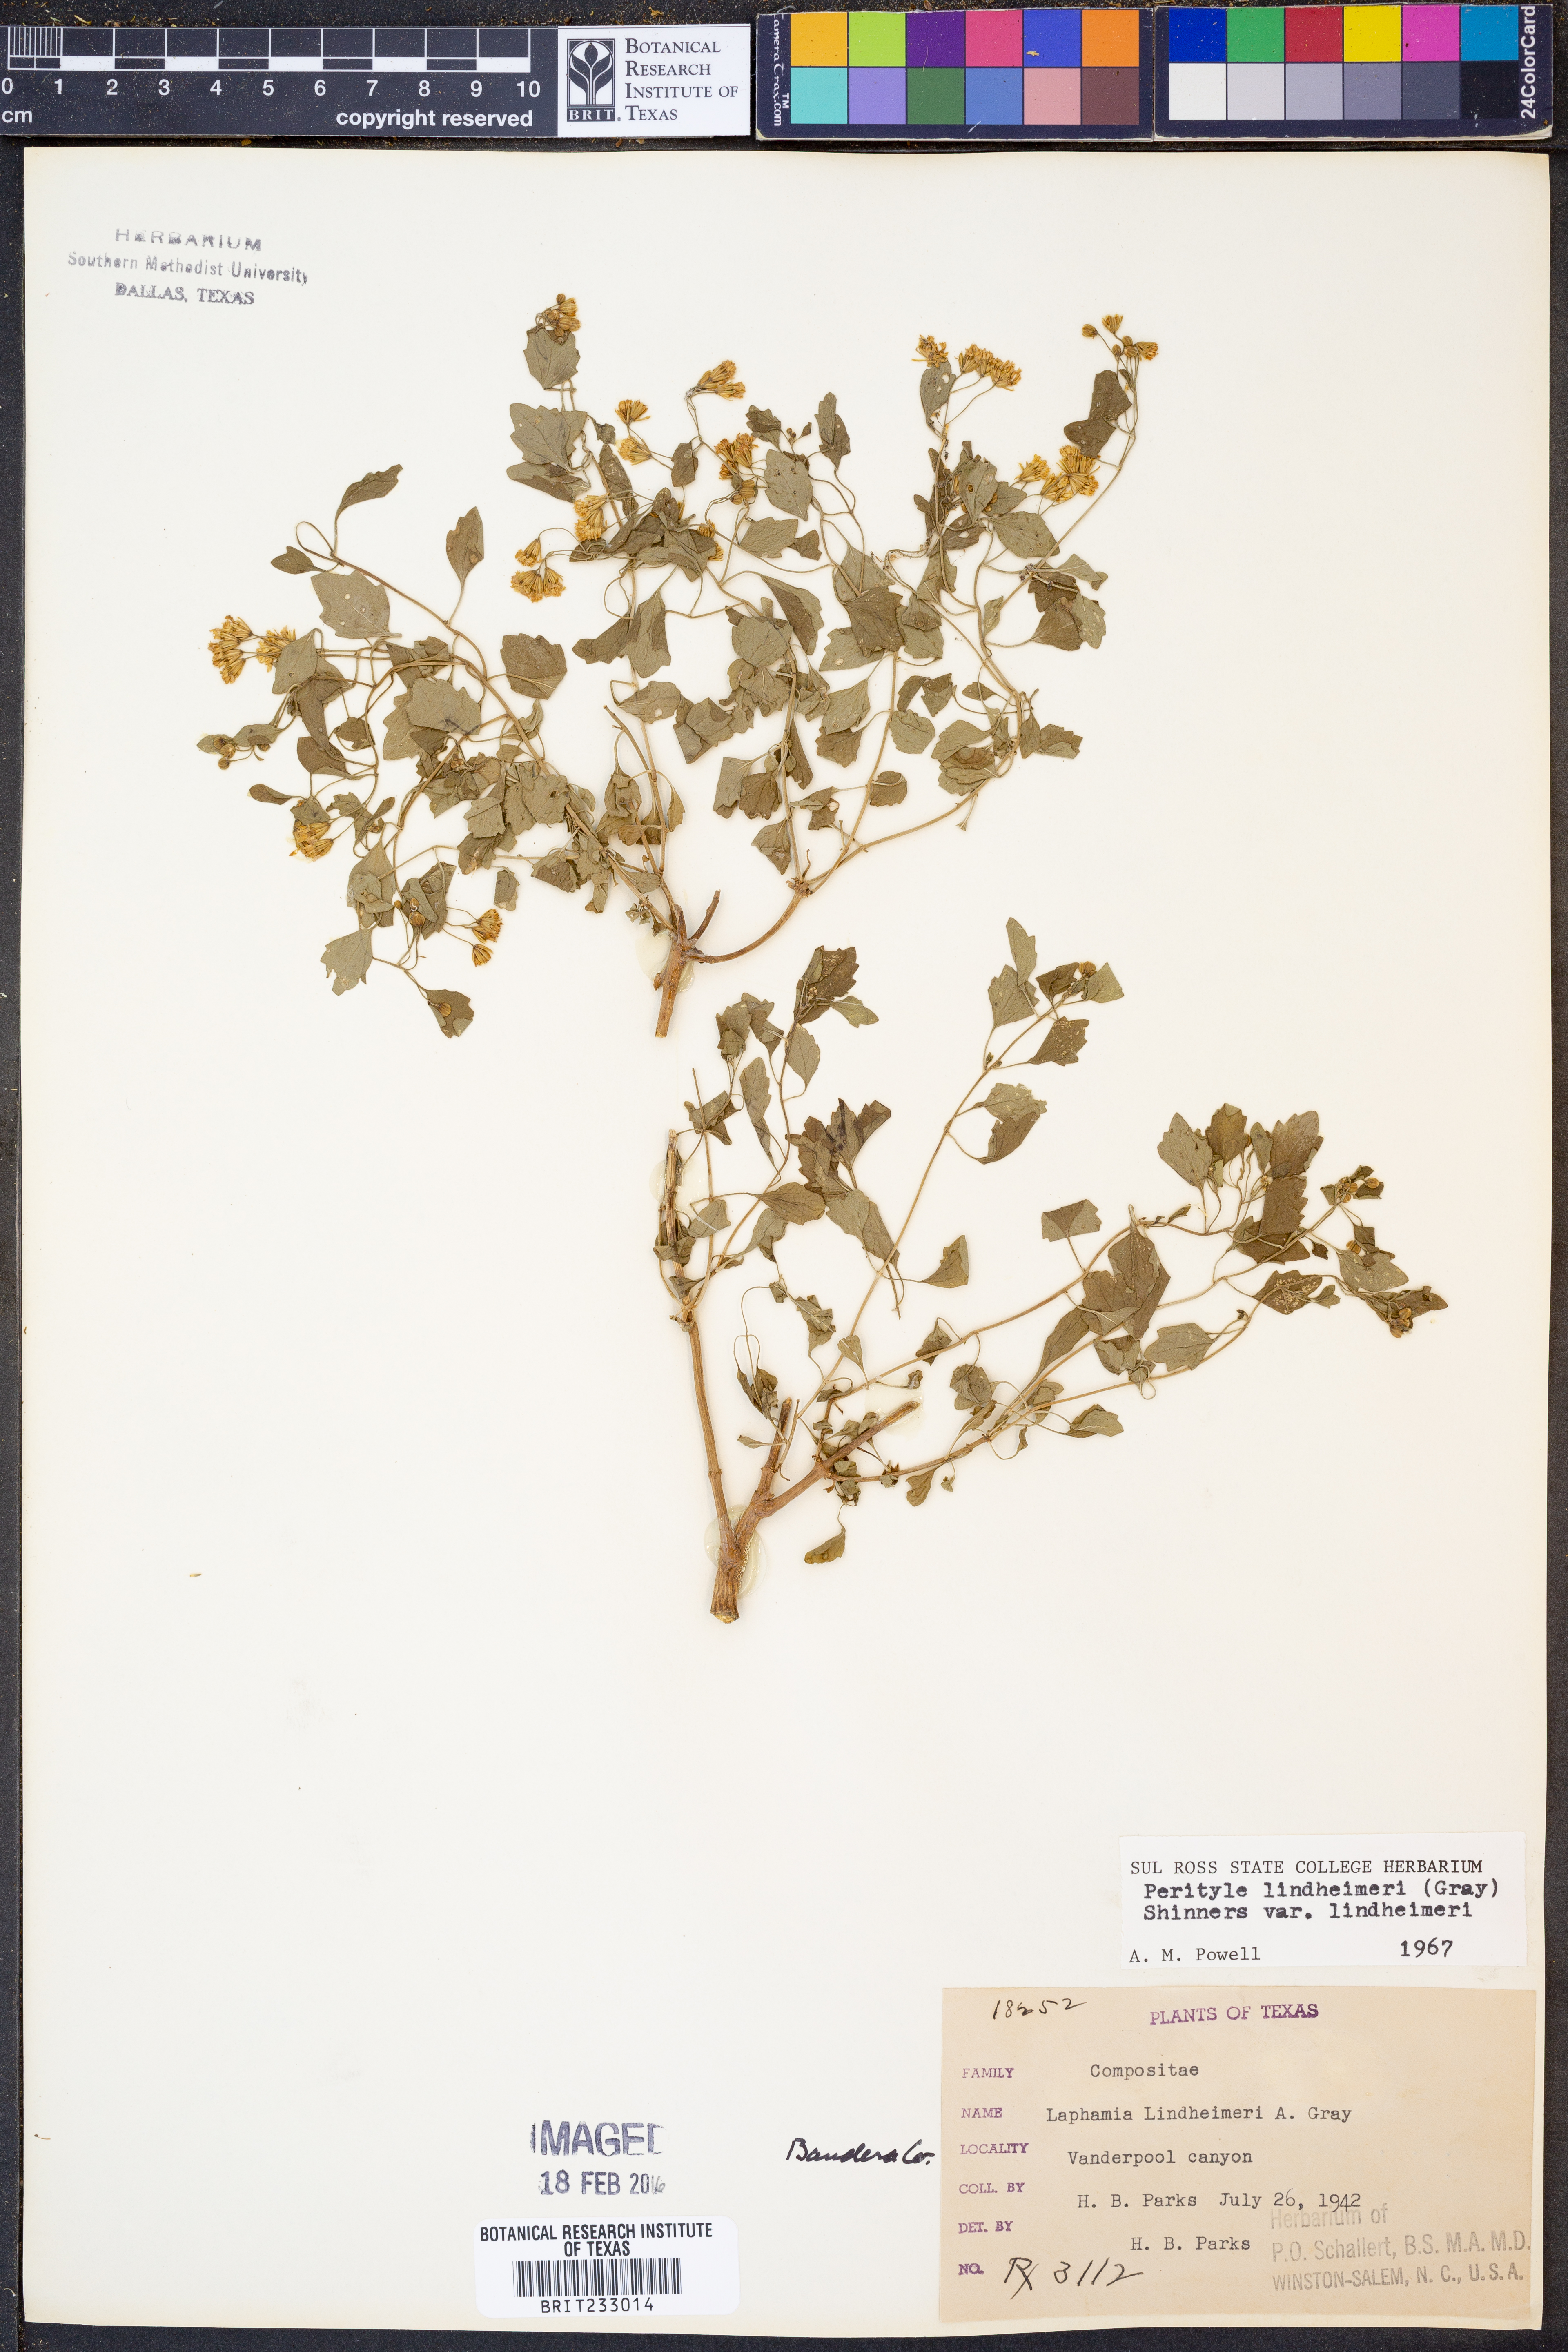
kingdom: Plantae
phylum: Tracheophyta
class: Magnoliopsida
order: Asterales
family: Asteraceae
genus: Laphamia
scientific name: Laphamia lindheimeri
